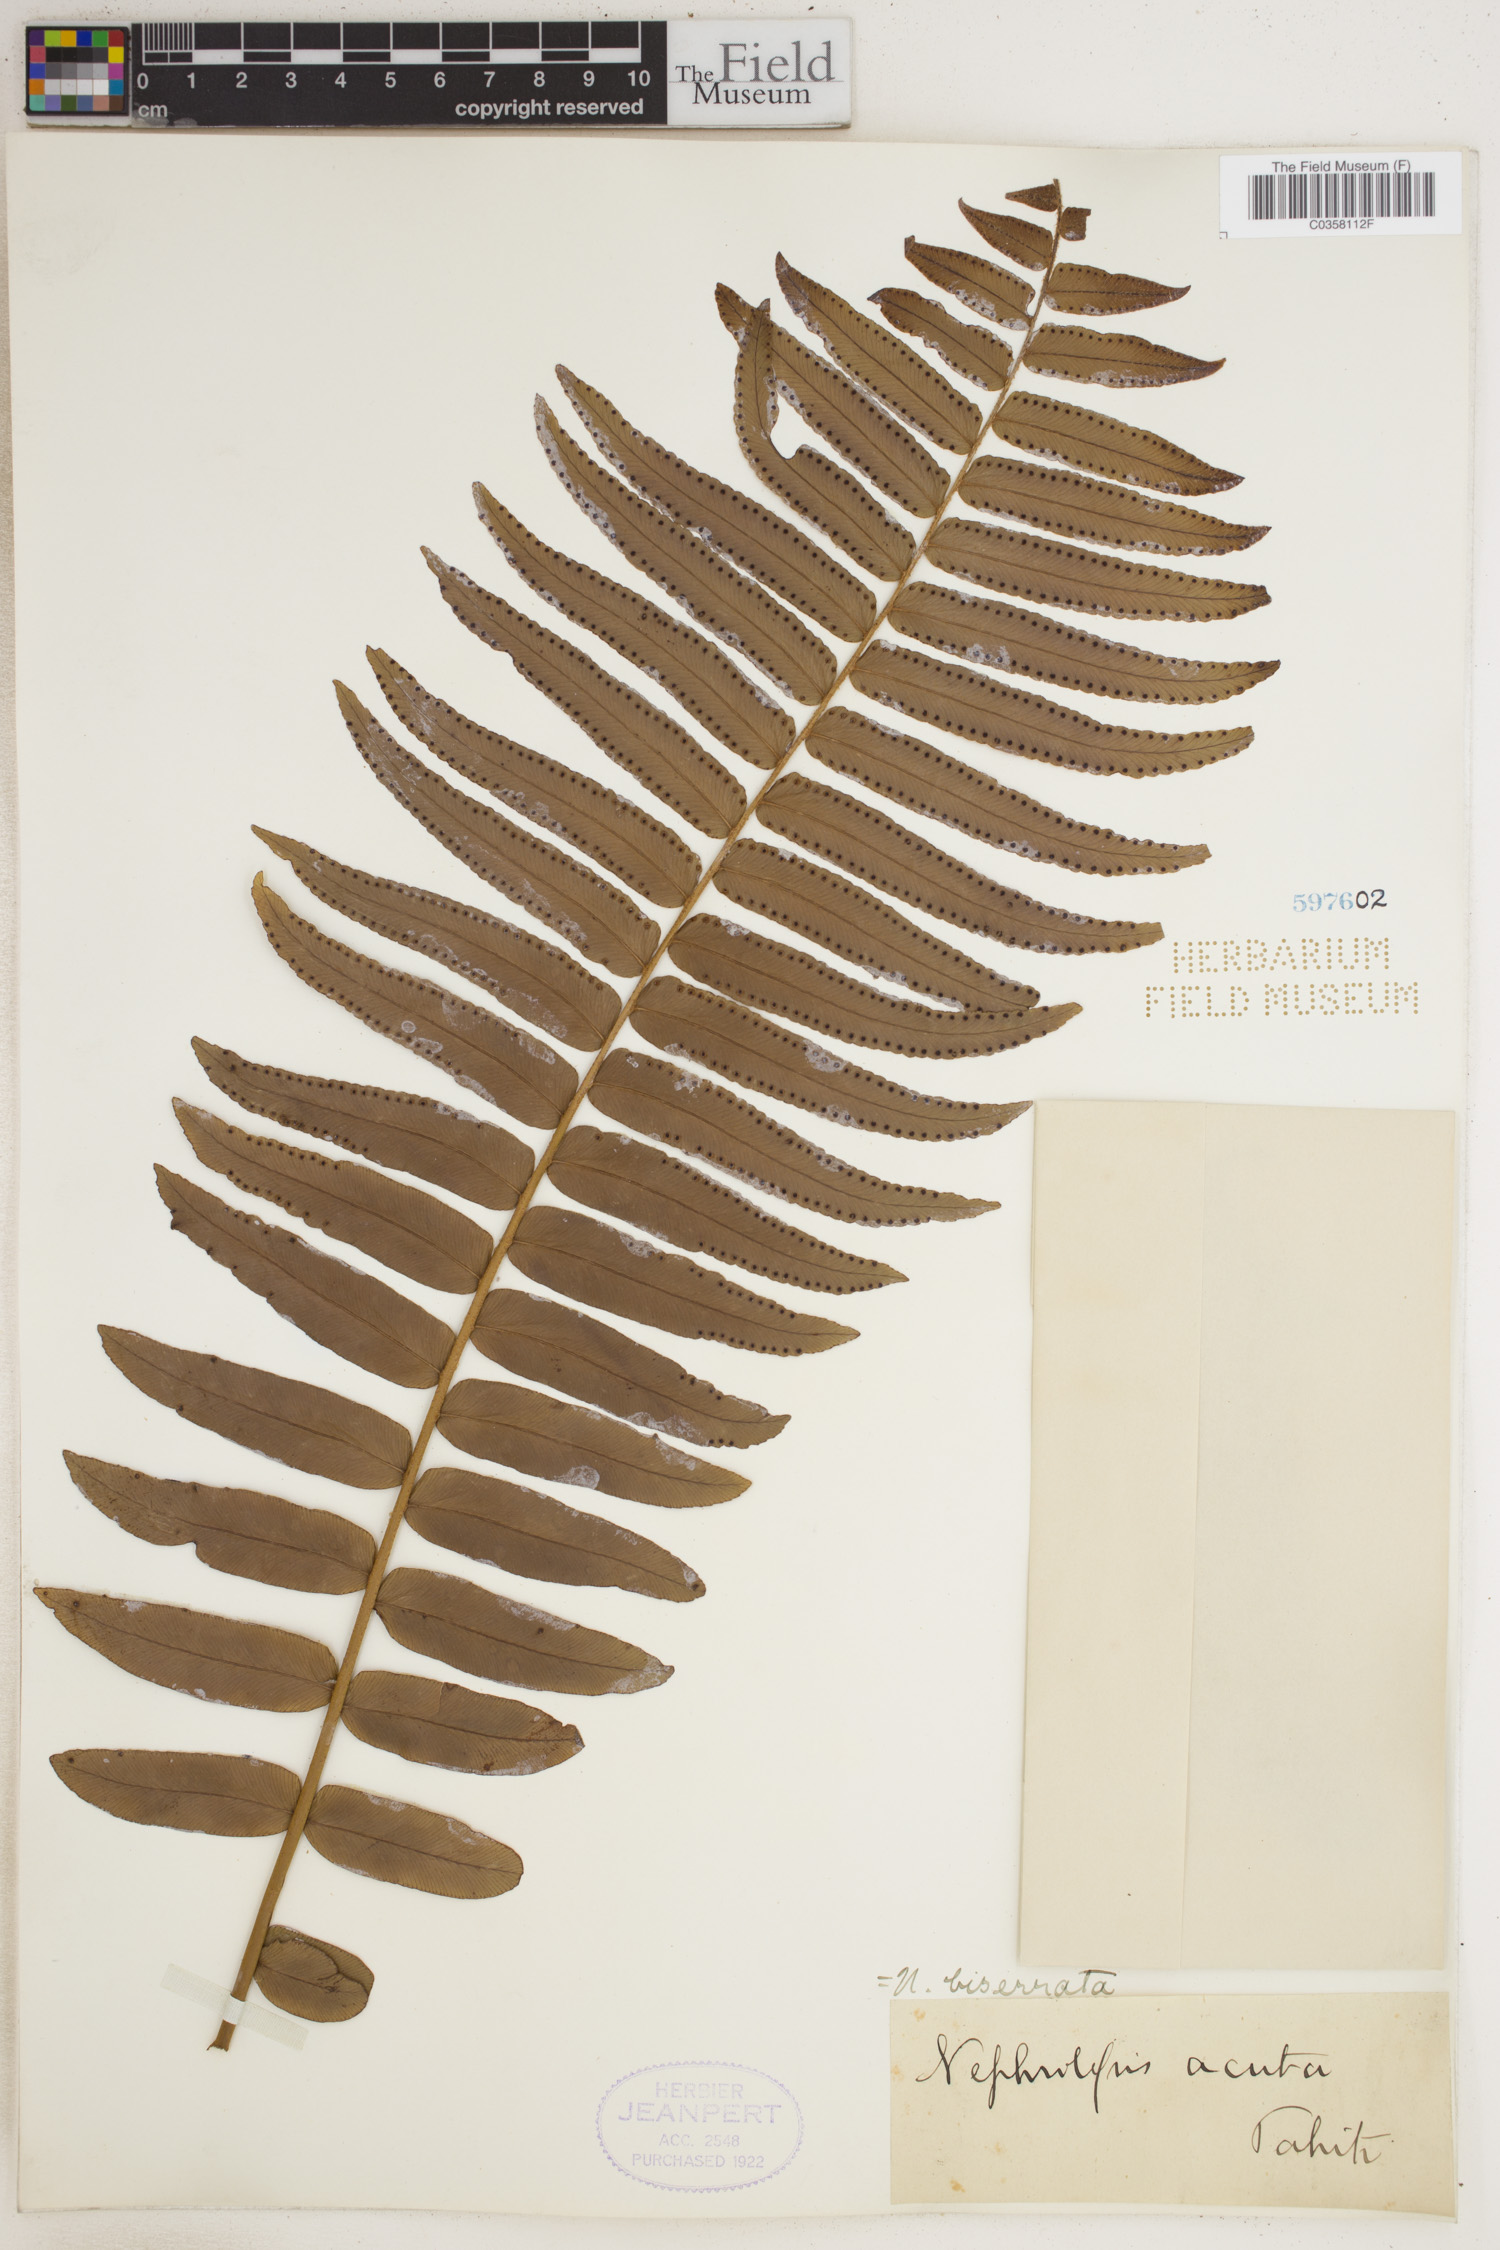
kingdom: Plantae
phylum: Tracheophyta
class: Polypodiopsida
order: Polypodiales
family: Nephrolepidaceae
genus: Nephrolepis
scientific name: Nephrolepis biserrata
